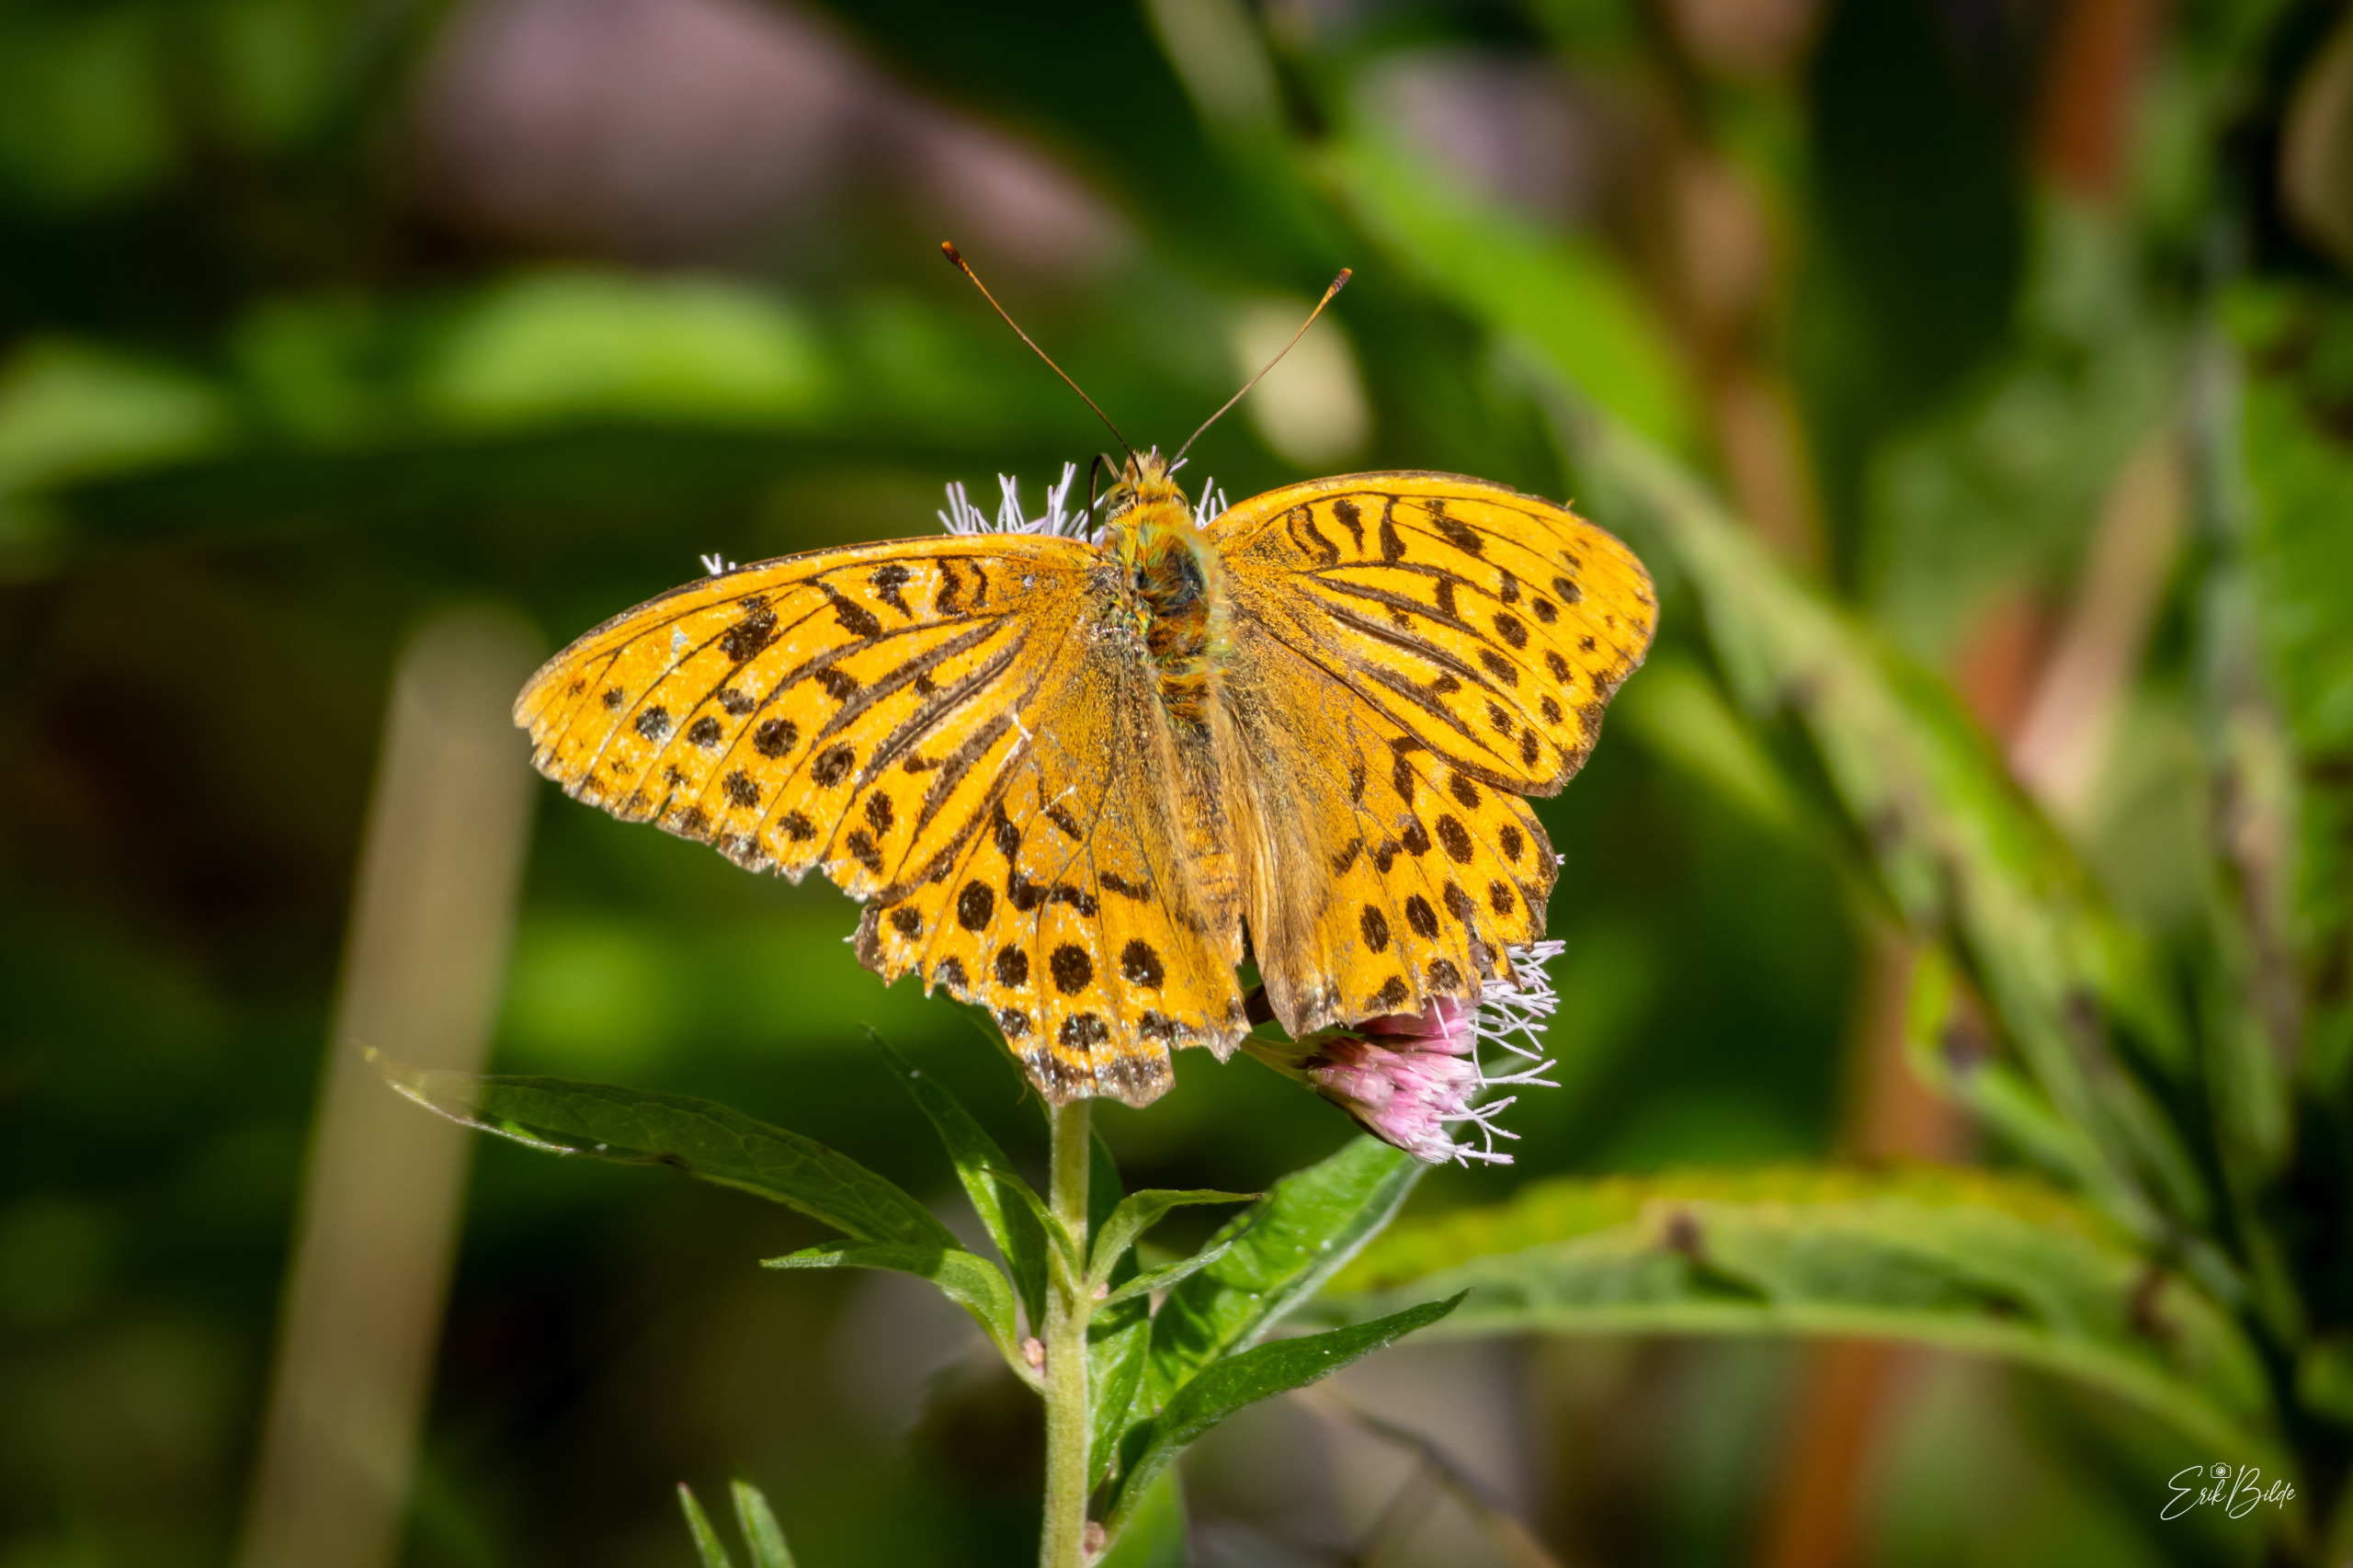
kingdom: Animalia
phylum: Arthropoda
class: Insecta
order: Lepidoptera
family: Nymphalidae
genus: Argynnis
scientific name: Argynnis paphia
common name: Kejserkåbe
